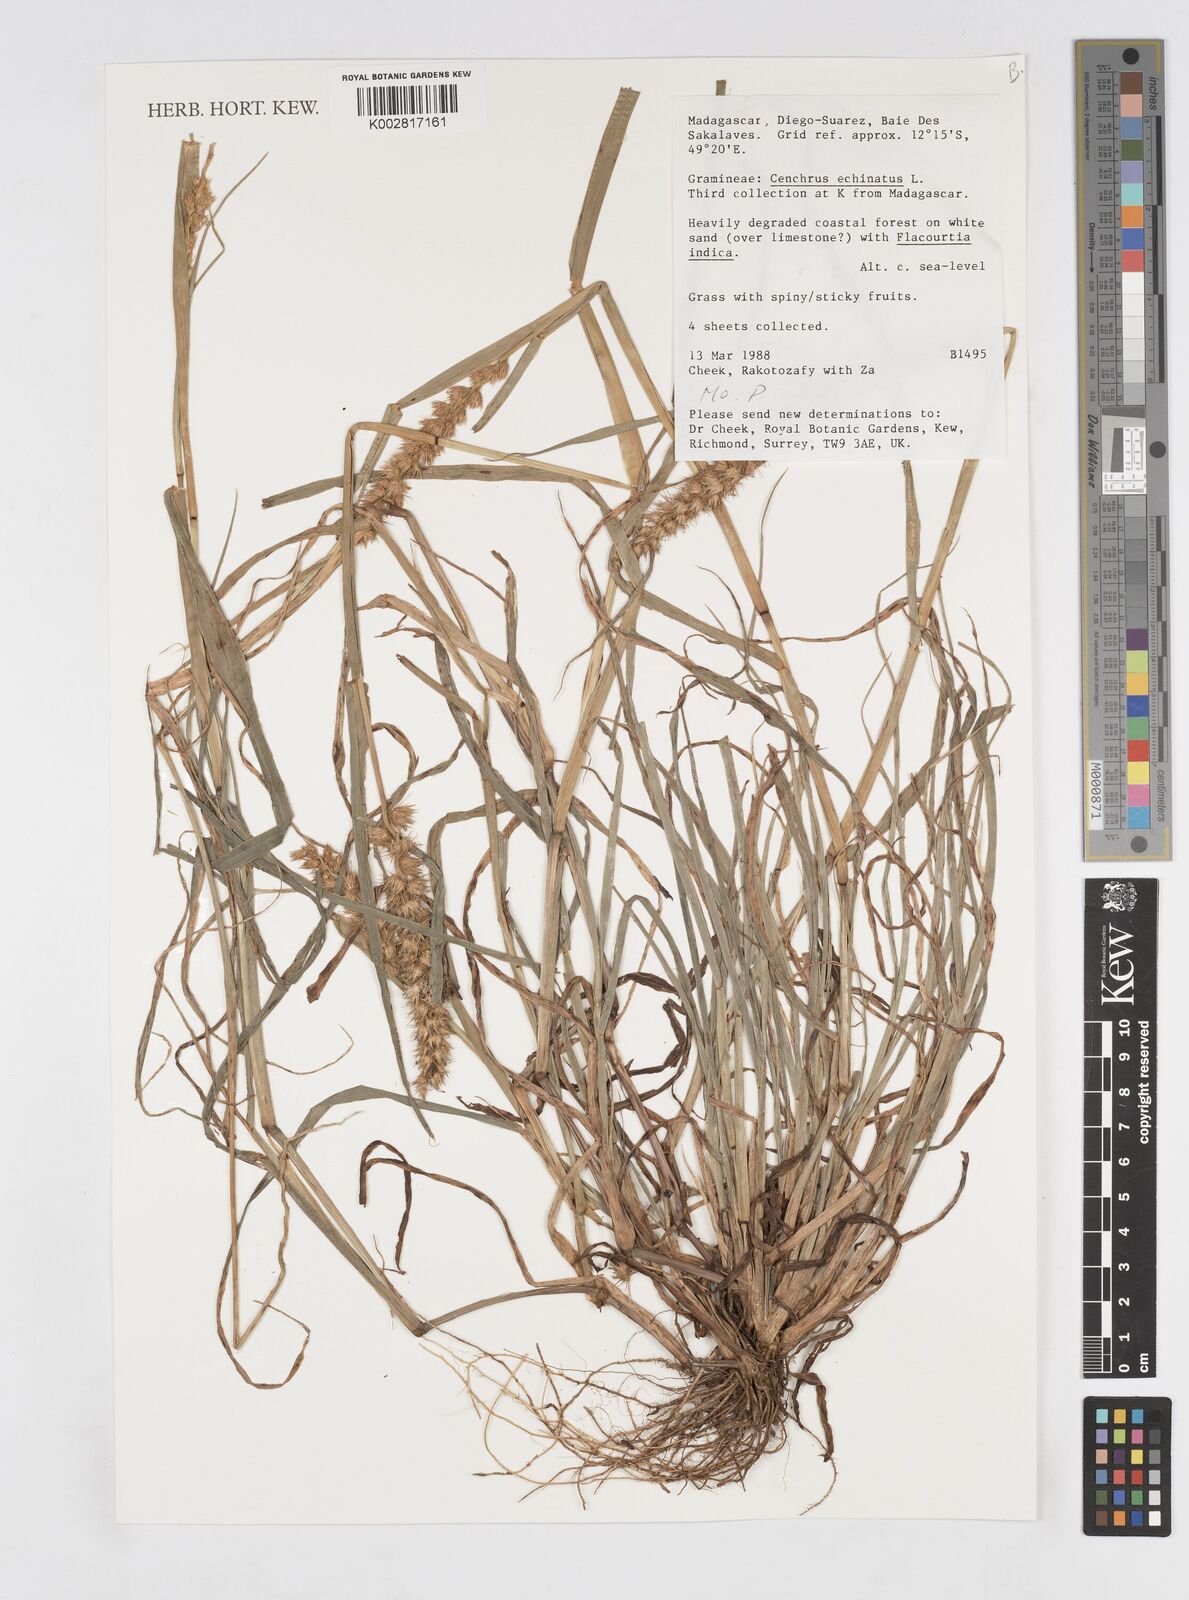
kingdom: Plantae
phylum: Tracheophyta
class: Liliopsida
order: Poales
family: Poaceae
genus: Cenchrus
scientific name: Cenchrus echinatus
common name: Southern sandbur
